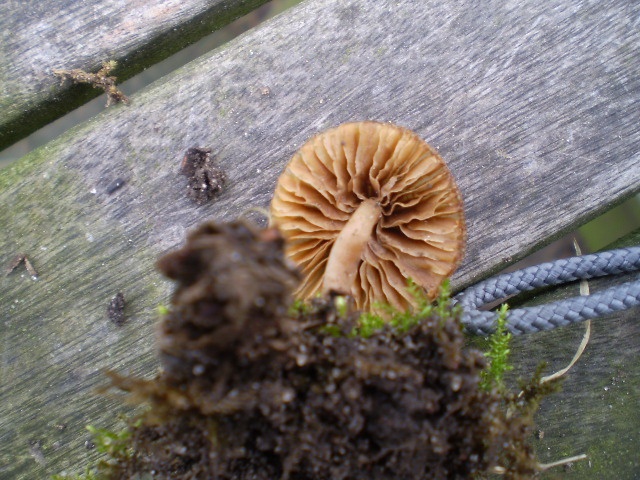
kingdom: Fungi
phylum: Basidiomycota
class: Agaricomycetes
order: Agaricales
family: Tubariaceae
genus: Tubaria
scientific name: Tubaria furfuracea
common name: kliddet fnughat
